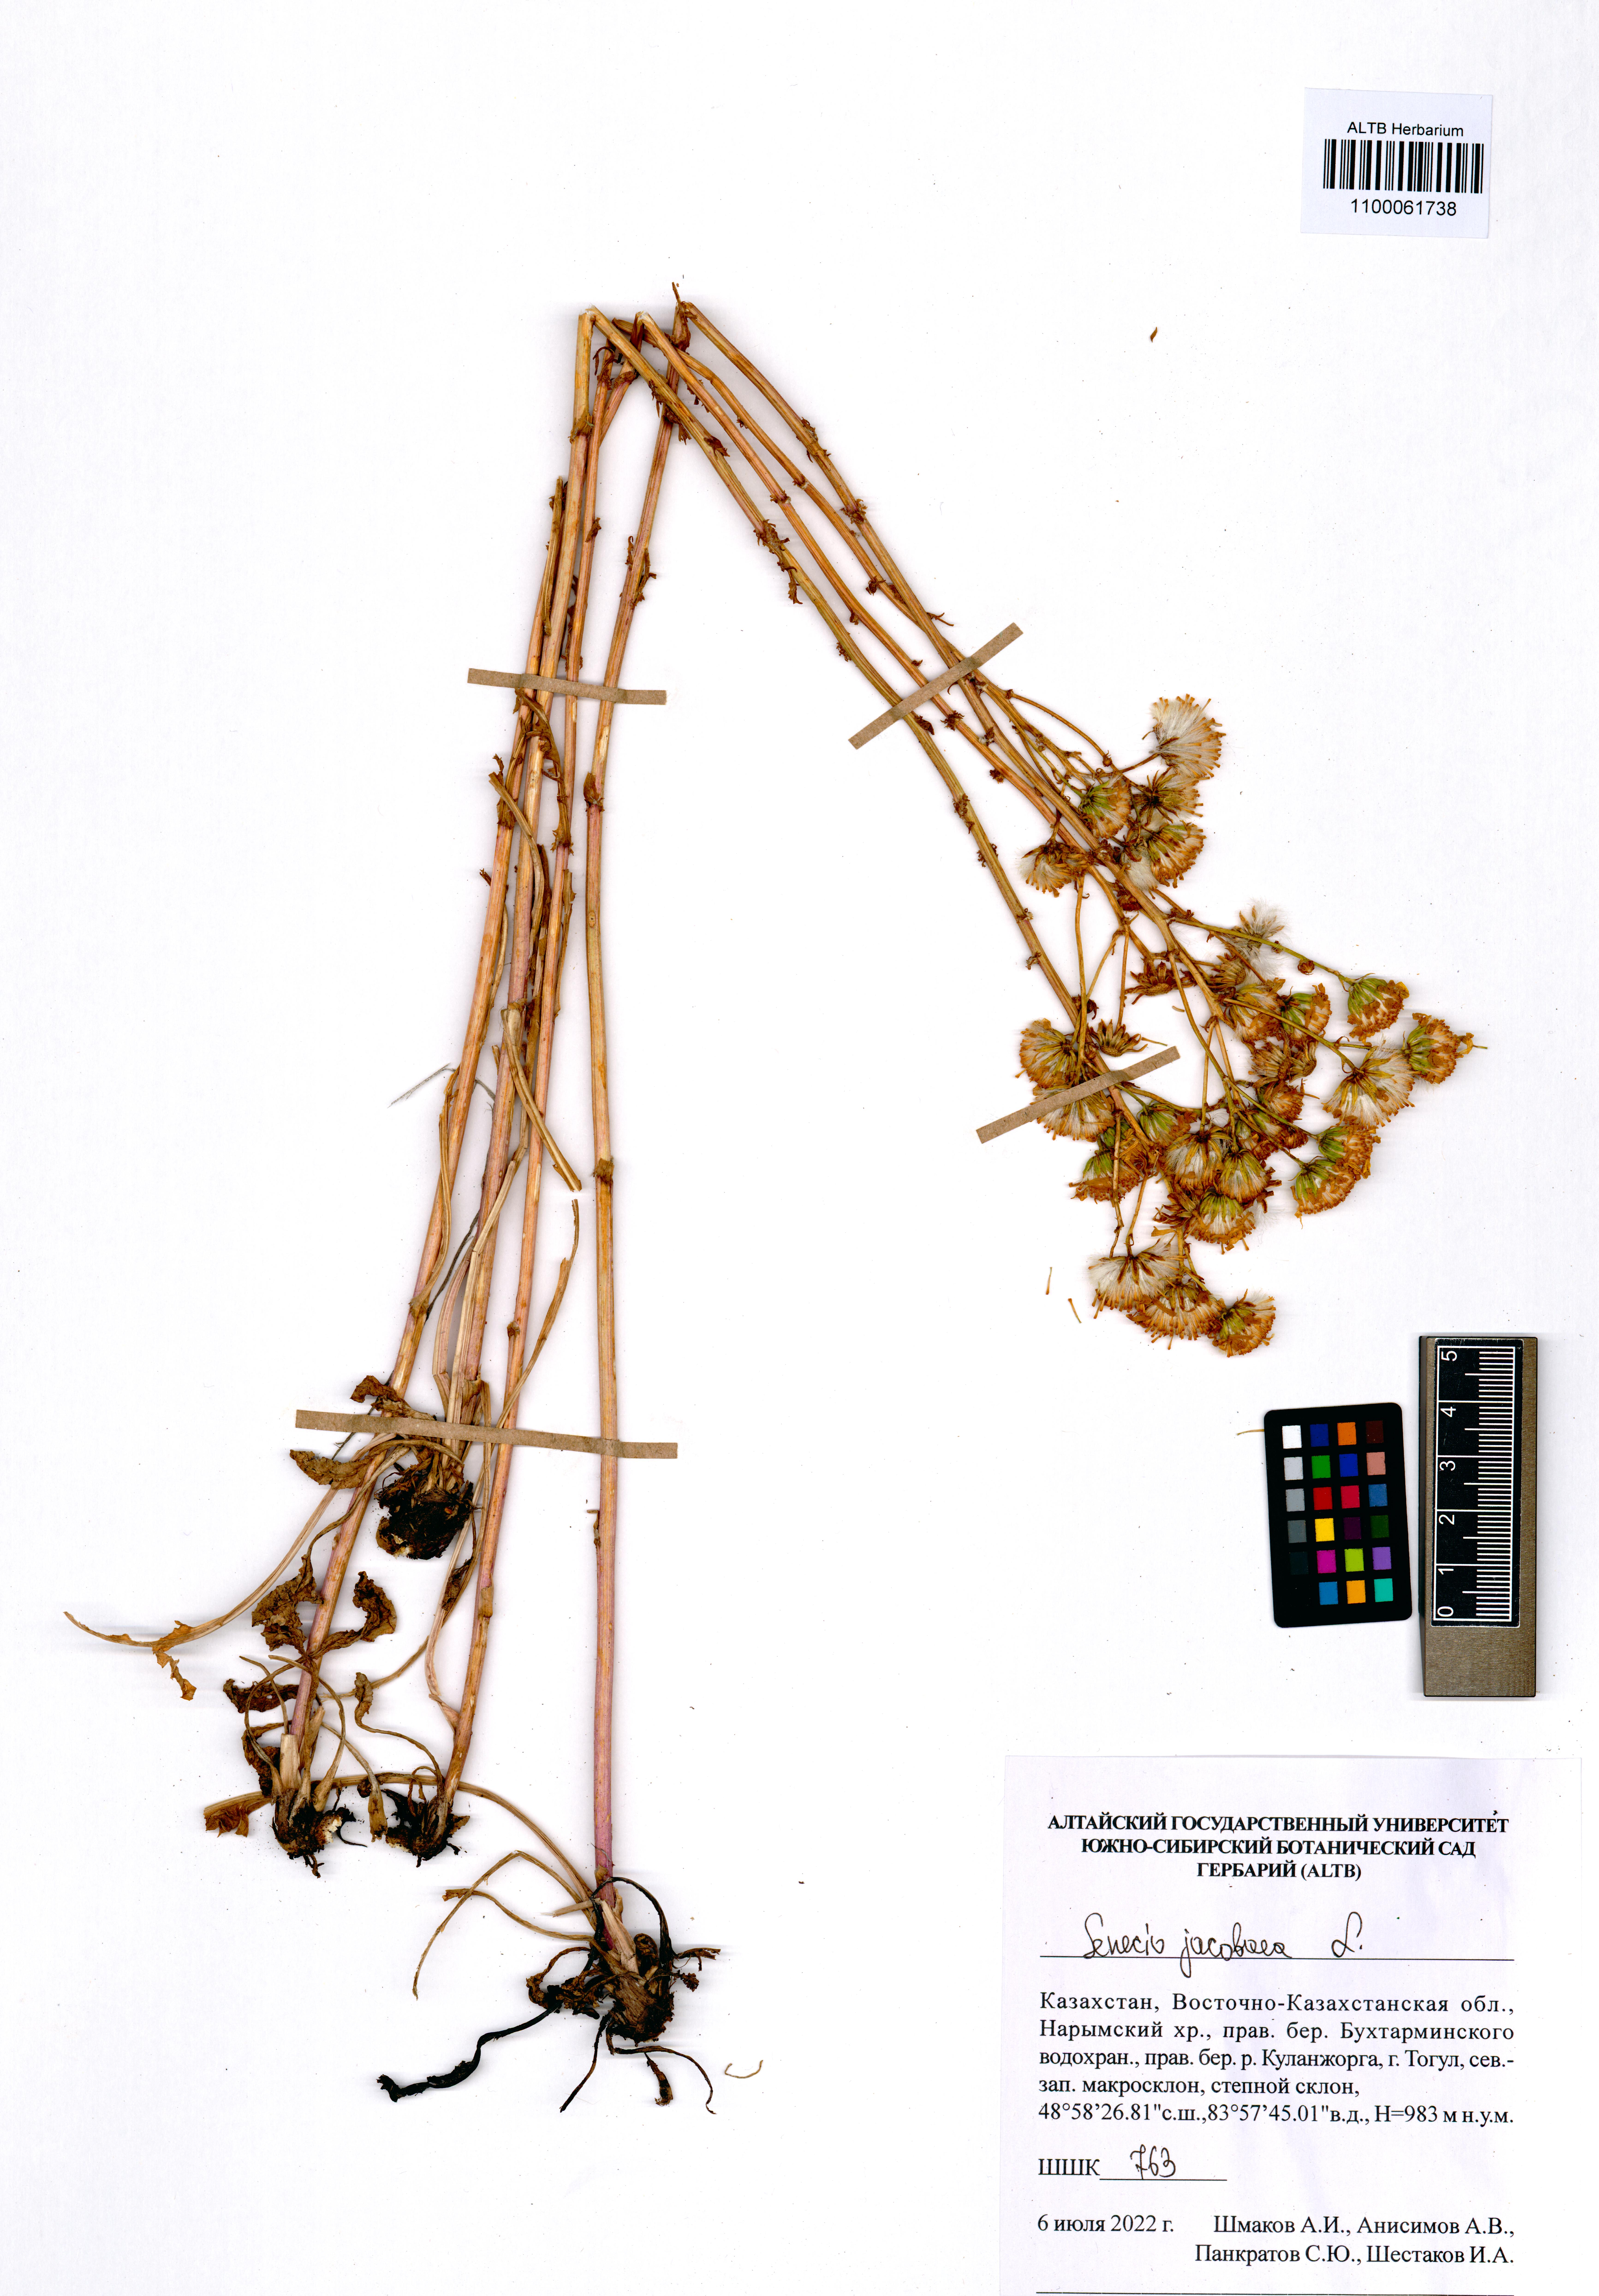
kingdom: Plantae
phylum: Tracheophyta
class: Magnoliopsida
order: Asterales
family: Asteraceae
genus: Jacobaea
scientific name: Jacobaea vulgaris
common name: Stinking willie
